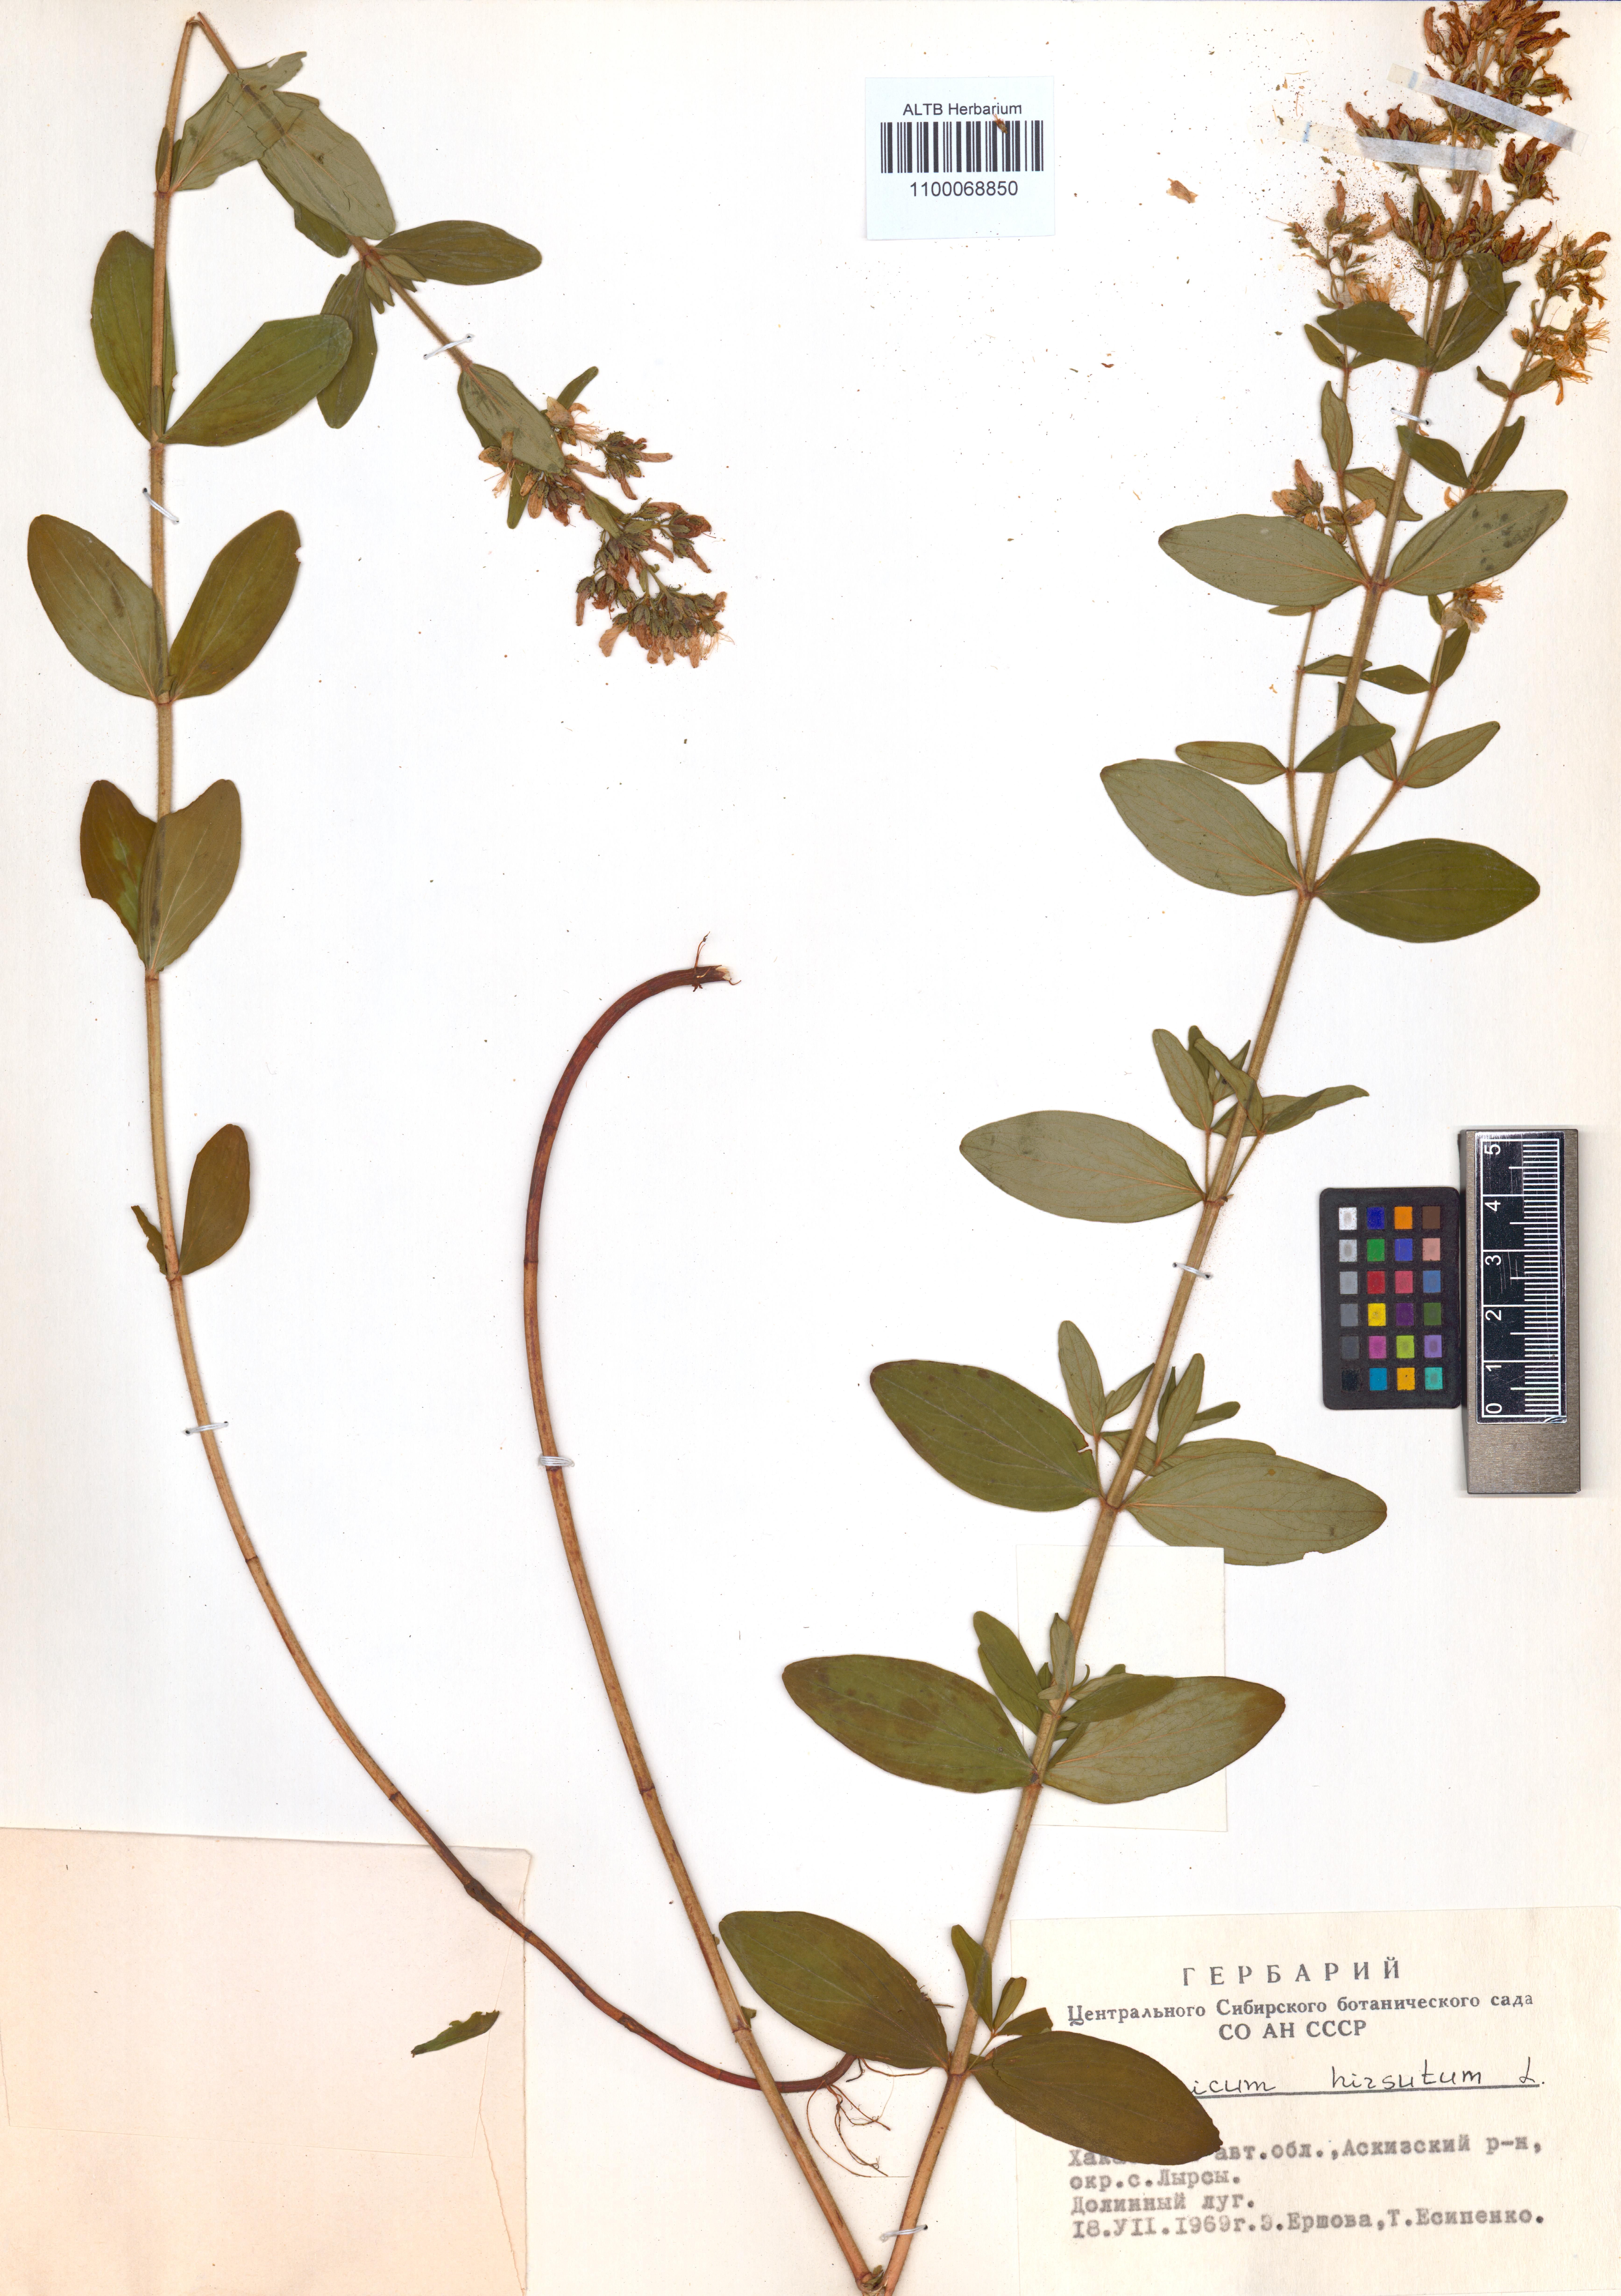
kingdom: Plantae
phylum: Tracheophyta
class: Magnoliopsida
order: Malpighiales
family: Hypericaceae
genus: Hypericum
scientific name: Hypericum hirsutum
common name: Hairy st. john's-wort
